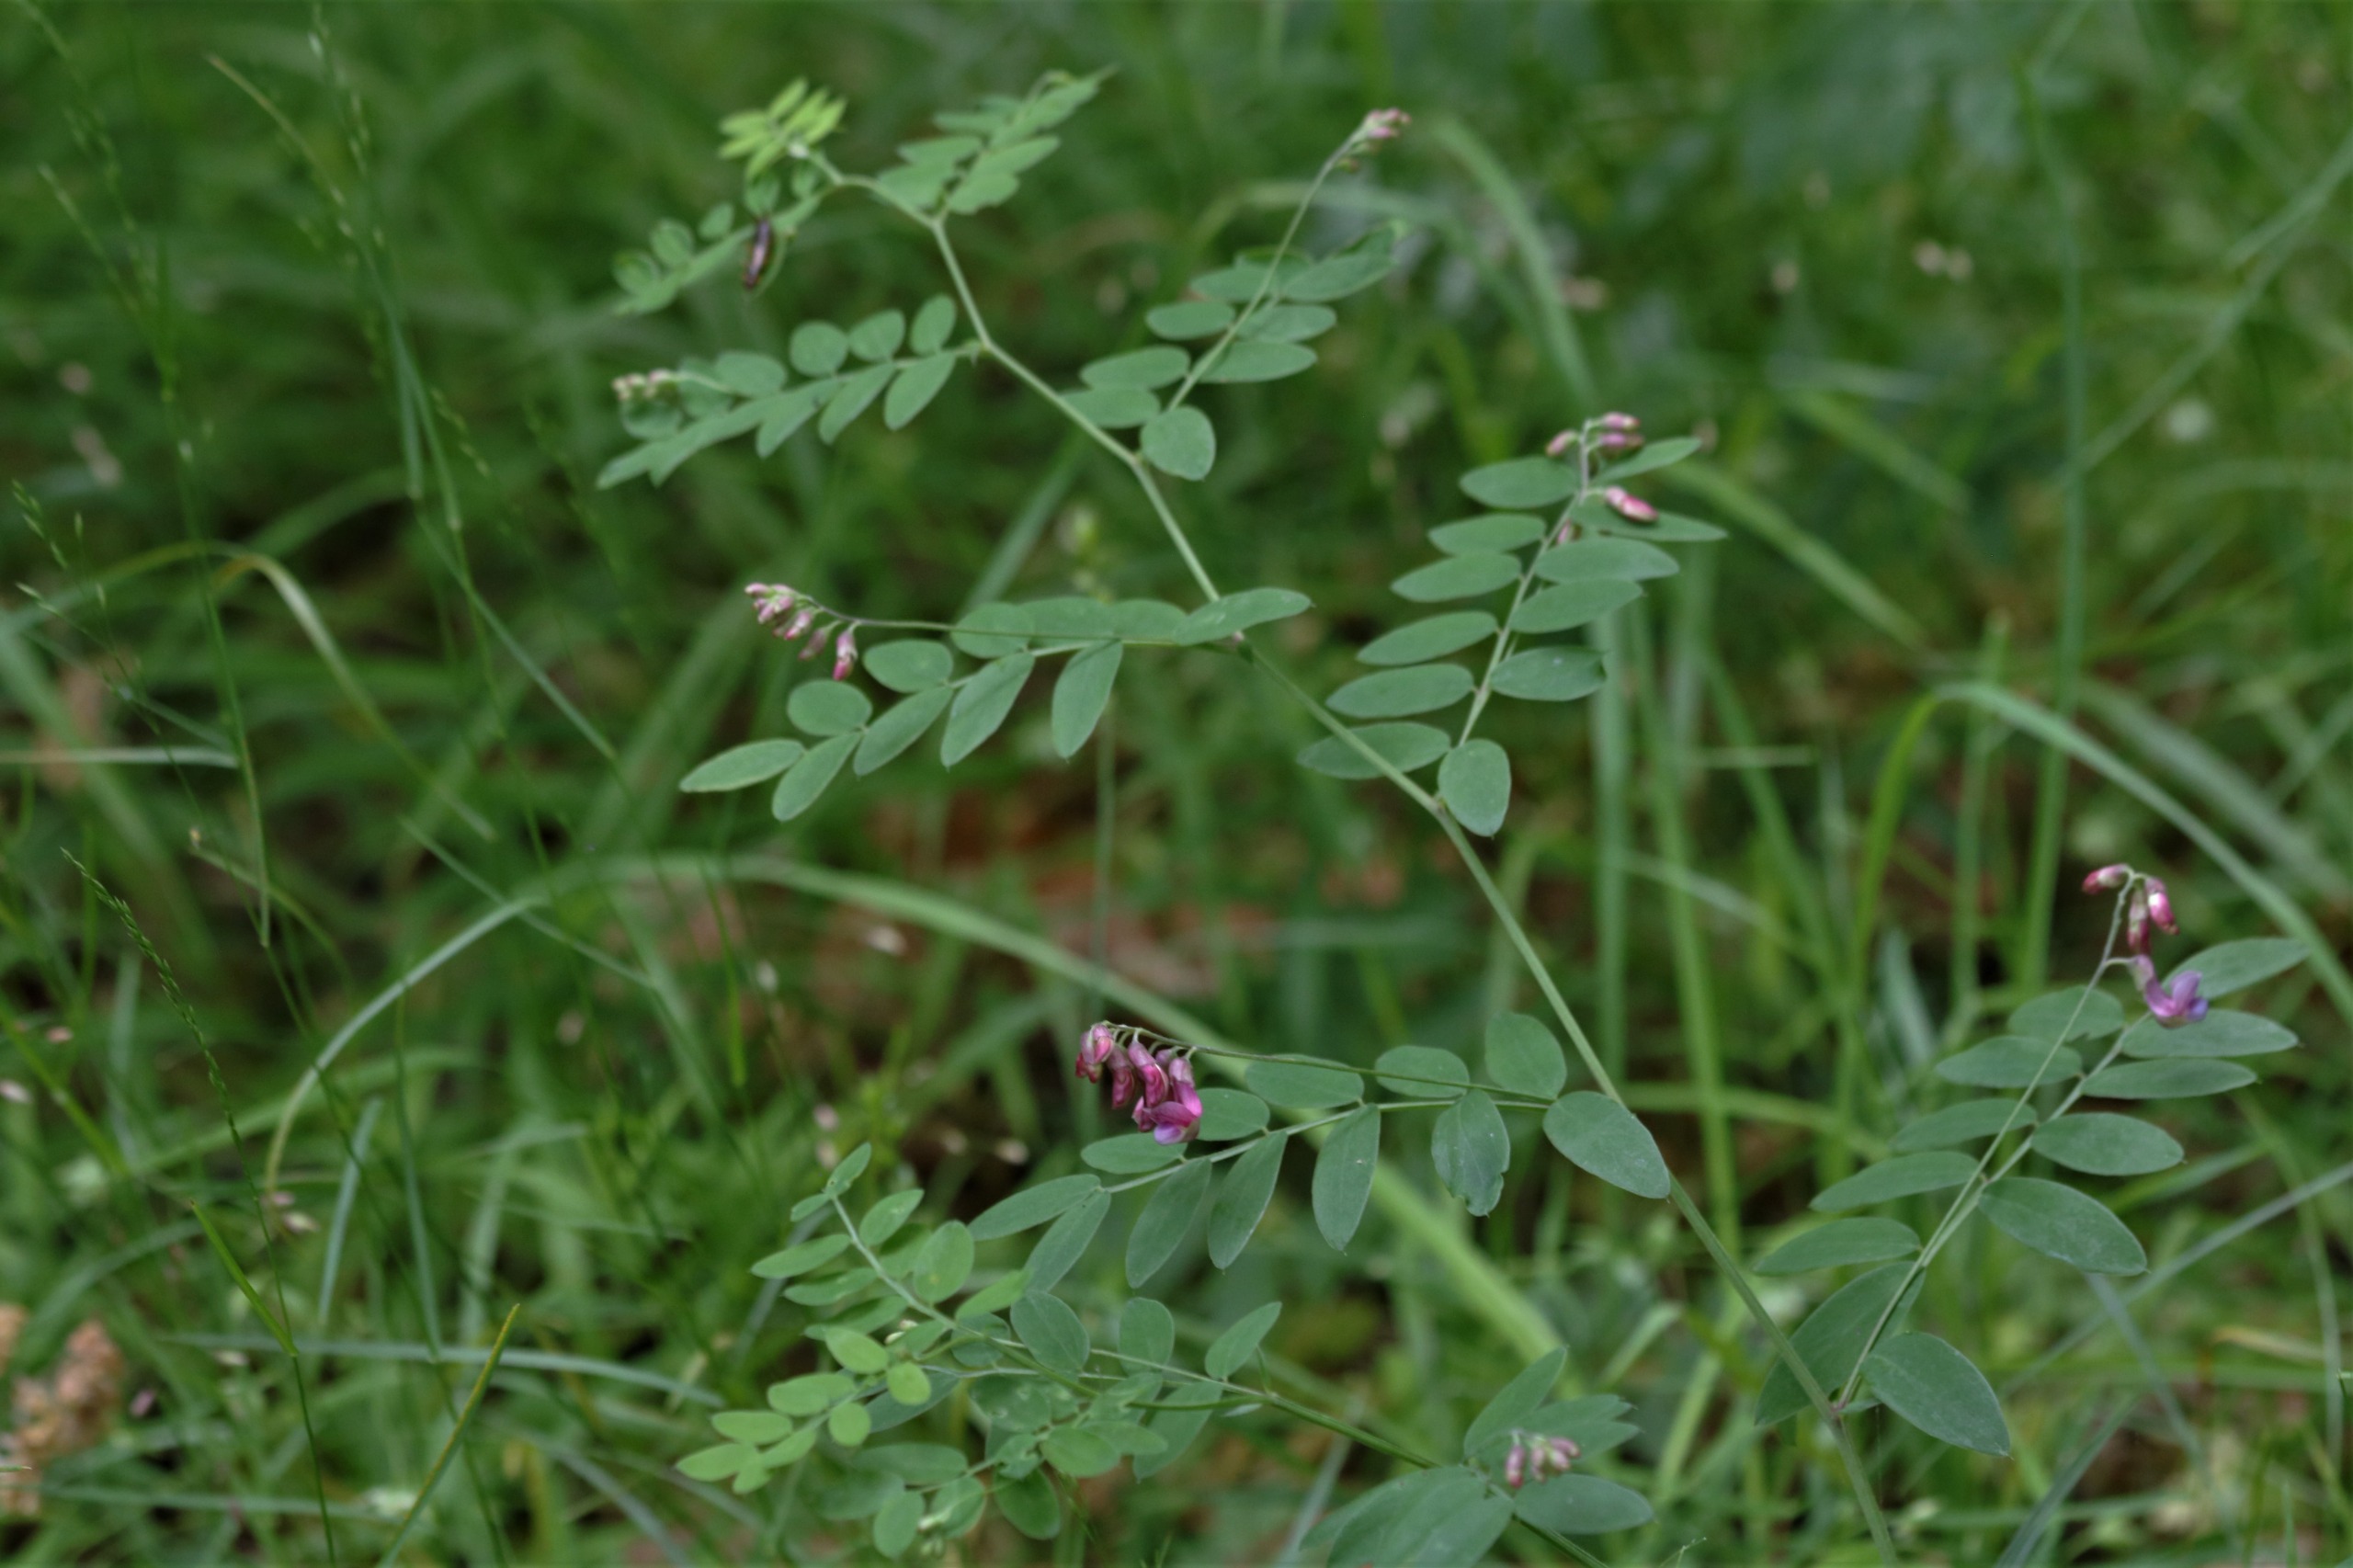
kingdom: Plantae
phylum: Tracheophyta
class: Magnoliopsida
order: Fabales
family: Fabaceae
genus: Lathyrus
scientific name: Lathyrus niger
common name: Sort fladbælg
